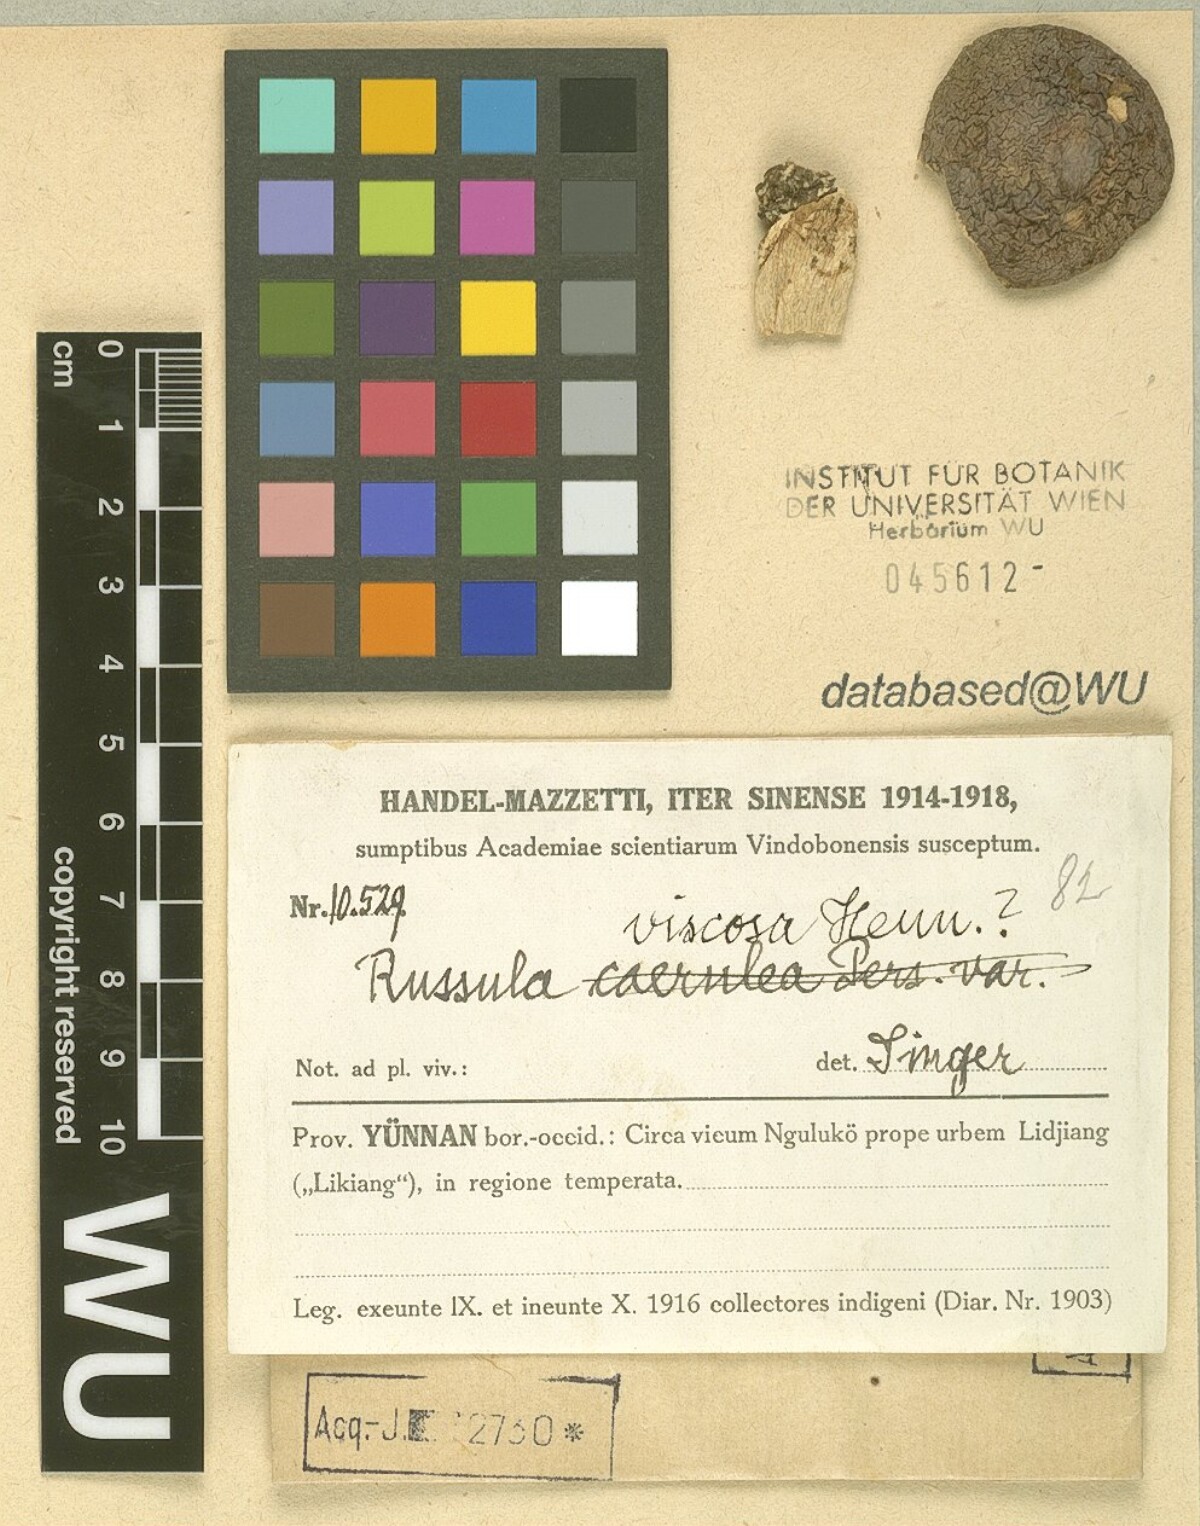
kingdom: Fungi
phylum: Basidiomycota
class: Agaricomycetes
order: Russulales
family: Russulaceae
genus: Russula
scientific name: Russula viscida
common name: Viscid brittlegill
